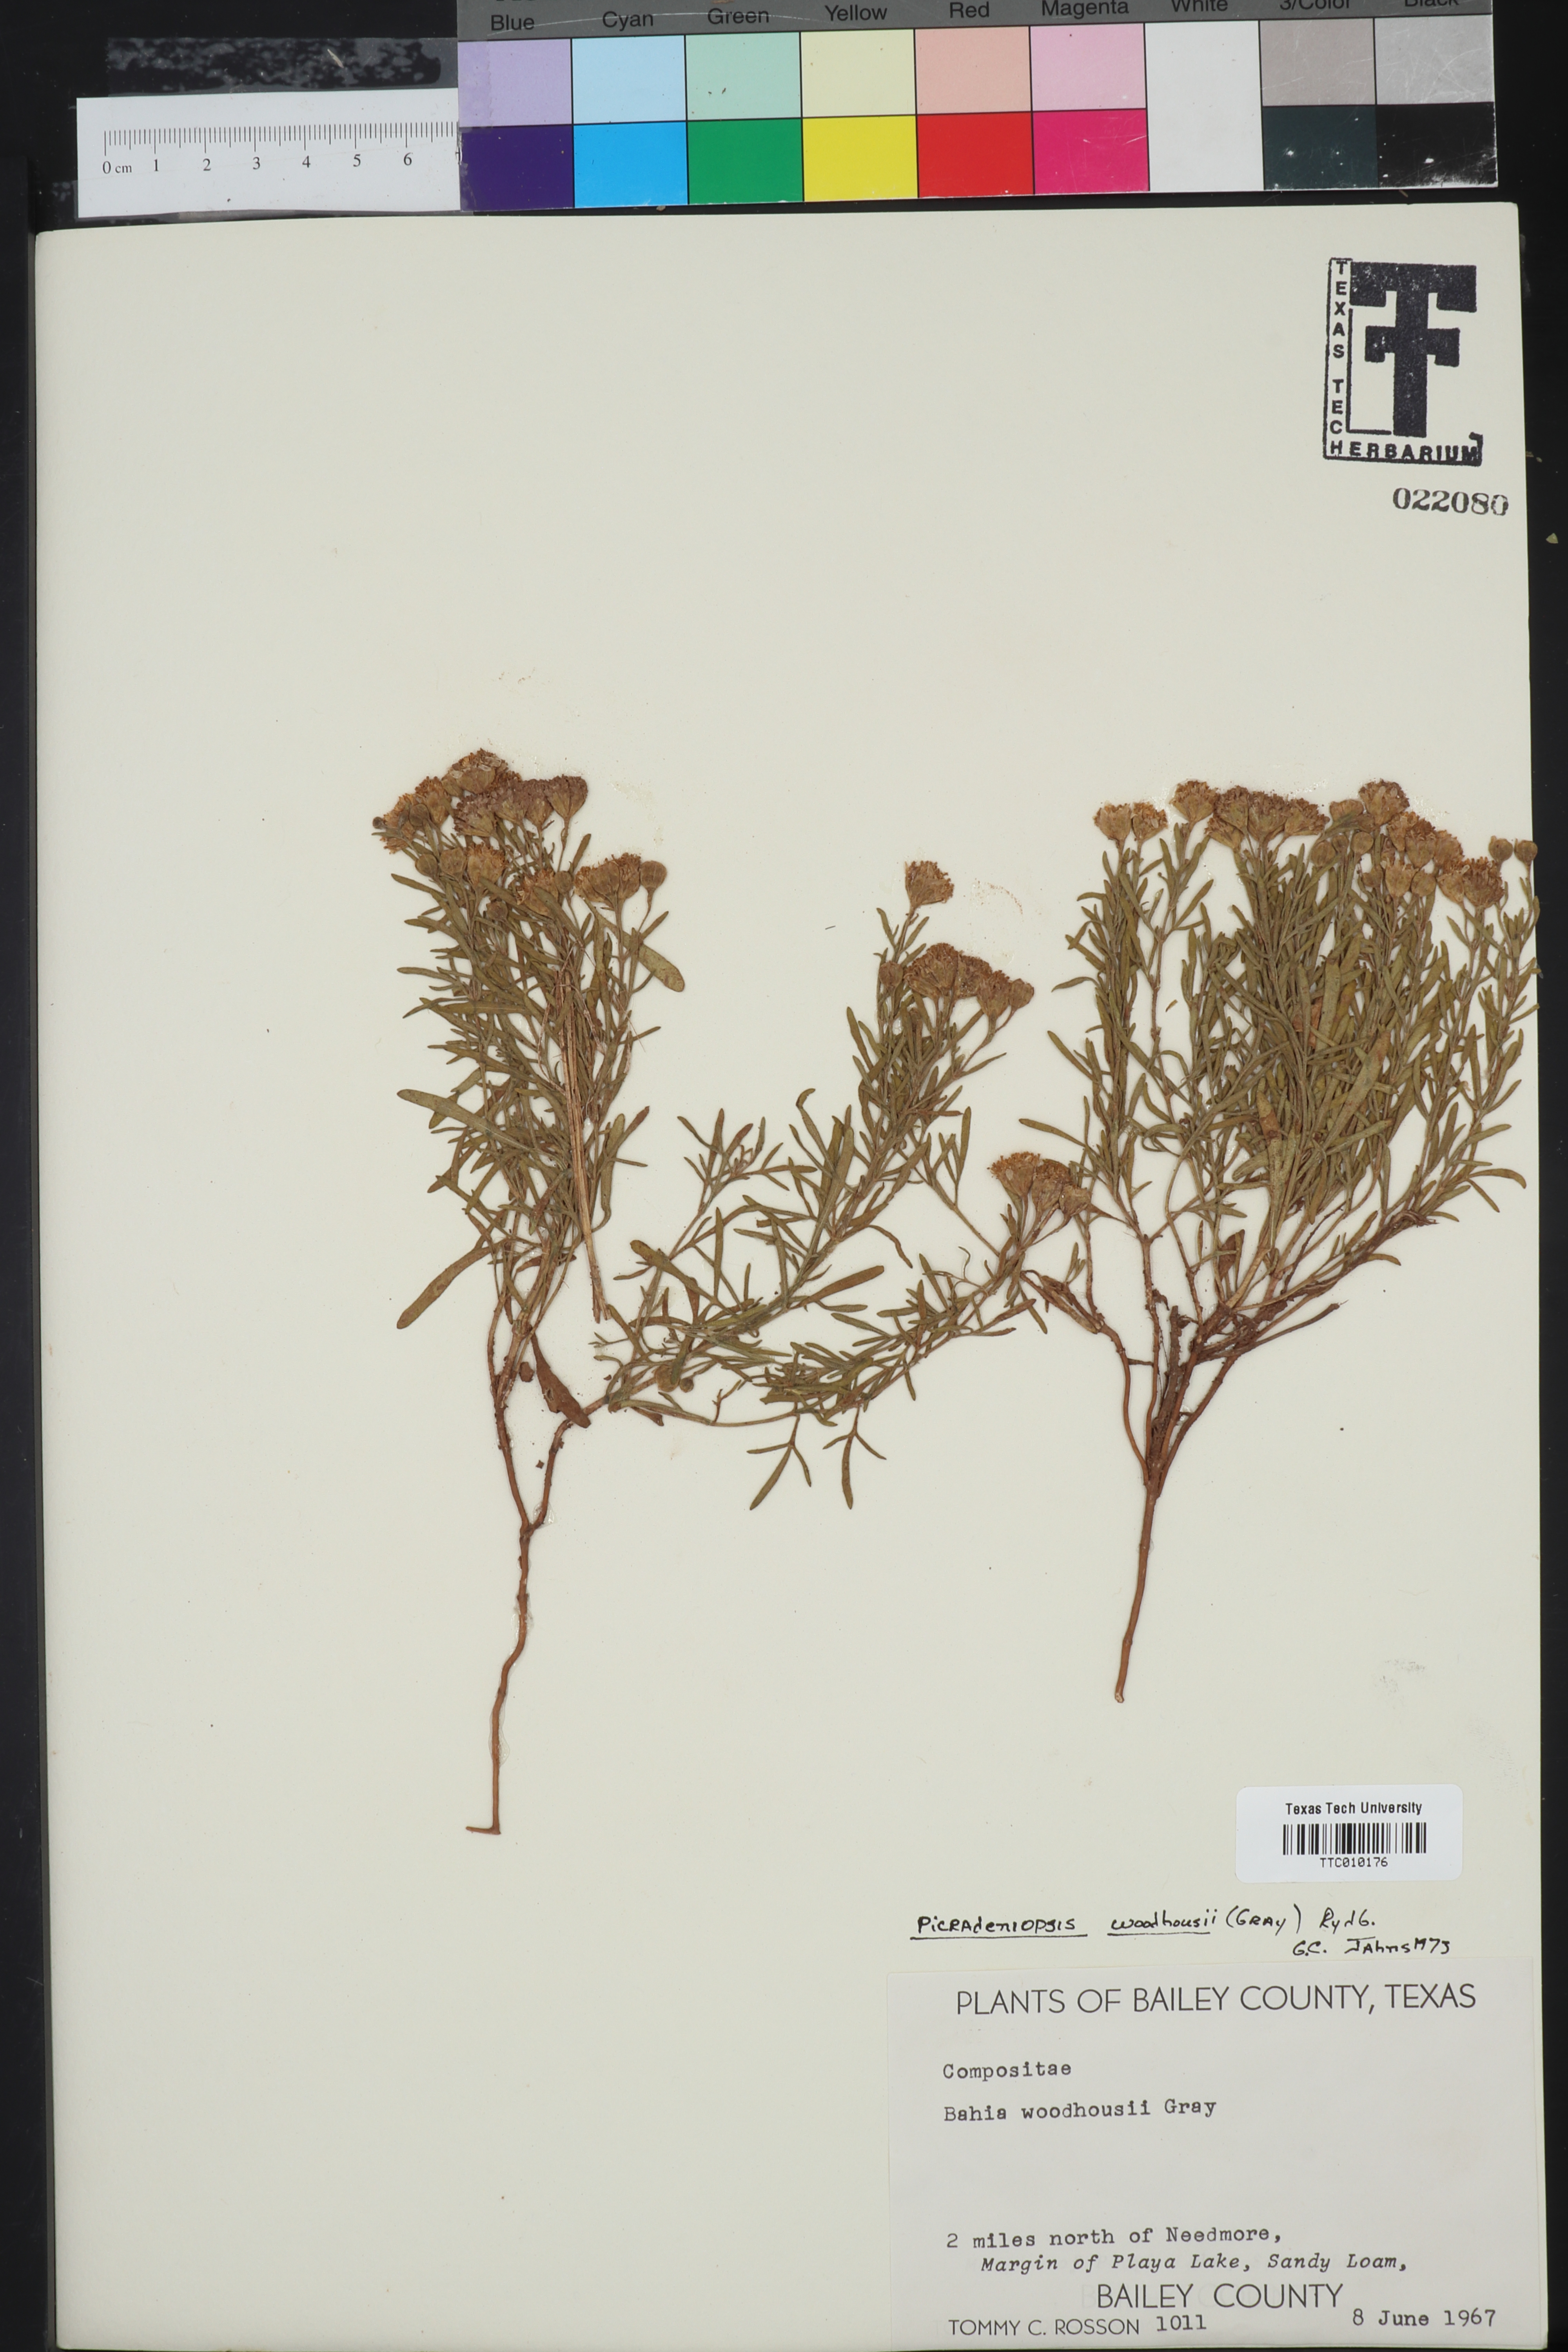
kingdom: Plantae
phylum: Tracheophyta
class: Magnoliopsida
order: Asterales
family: Asteraceae
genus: Picradeniopsis
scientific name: Picradeniopsis woodhousei
